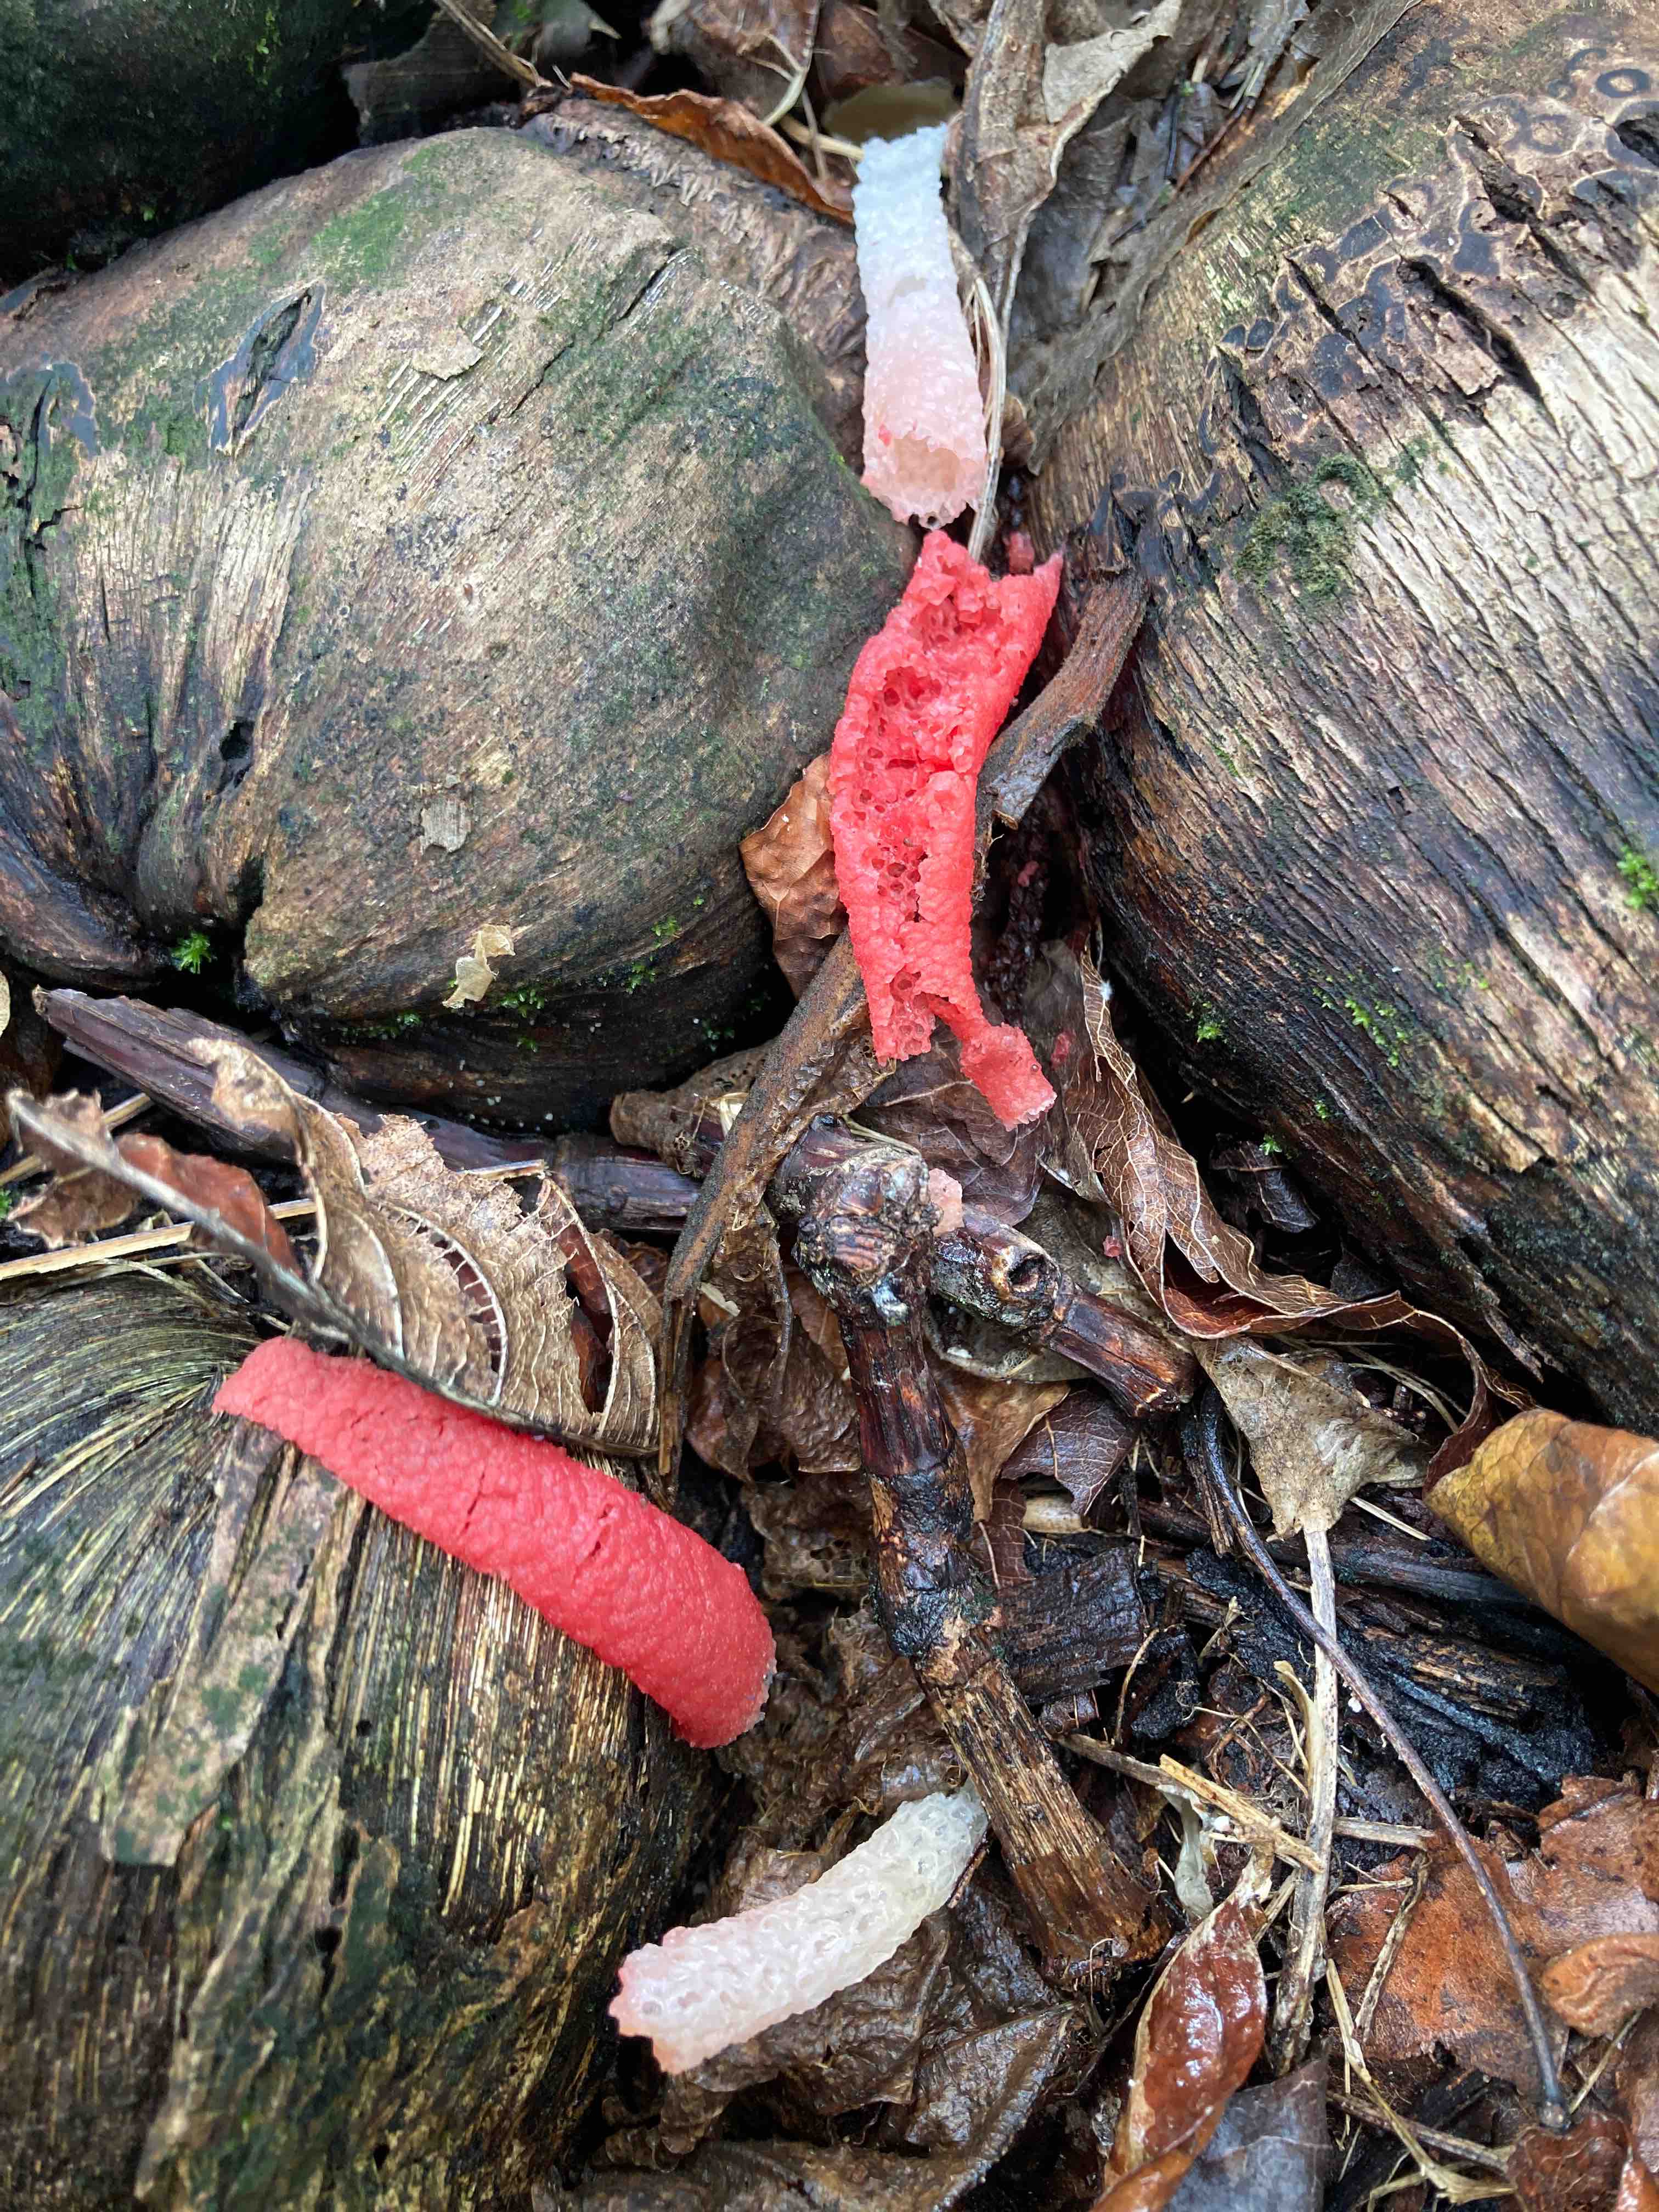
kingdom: Fungi
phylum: Basidiomycota
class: Agaricomycetes
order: Phallales
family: Phallaceae
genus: Mutinus
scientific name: Mutinus
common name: stinksvamp
